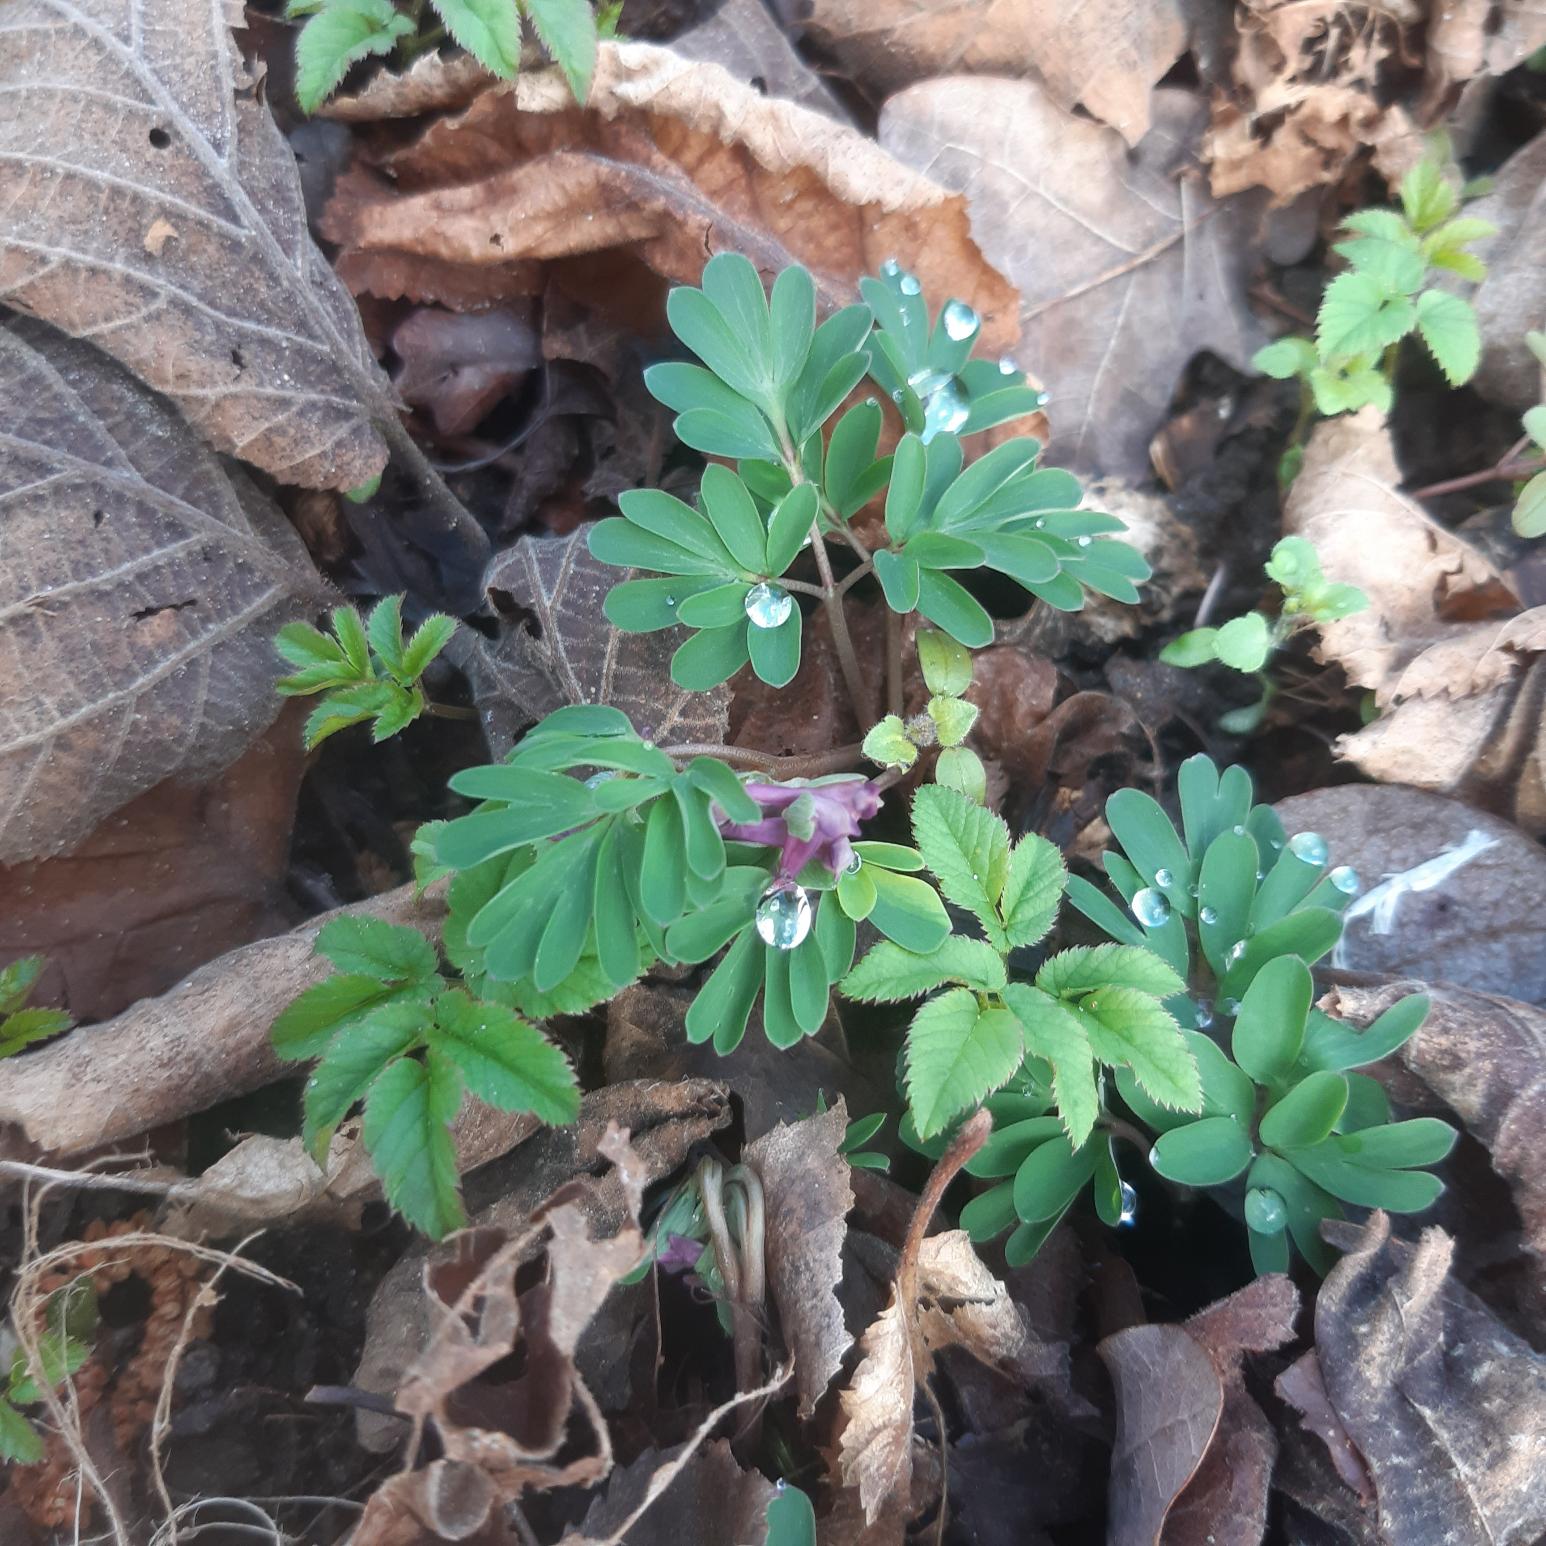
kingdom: Plantae
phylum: Tracheophyta
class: Magnoliopsida
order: Ranunculales
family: Papaveraceae
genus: Corydalis
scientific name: Corydalis intermedia
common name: Liden lærkespore
